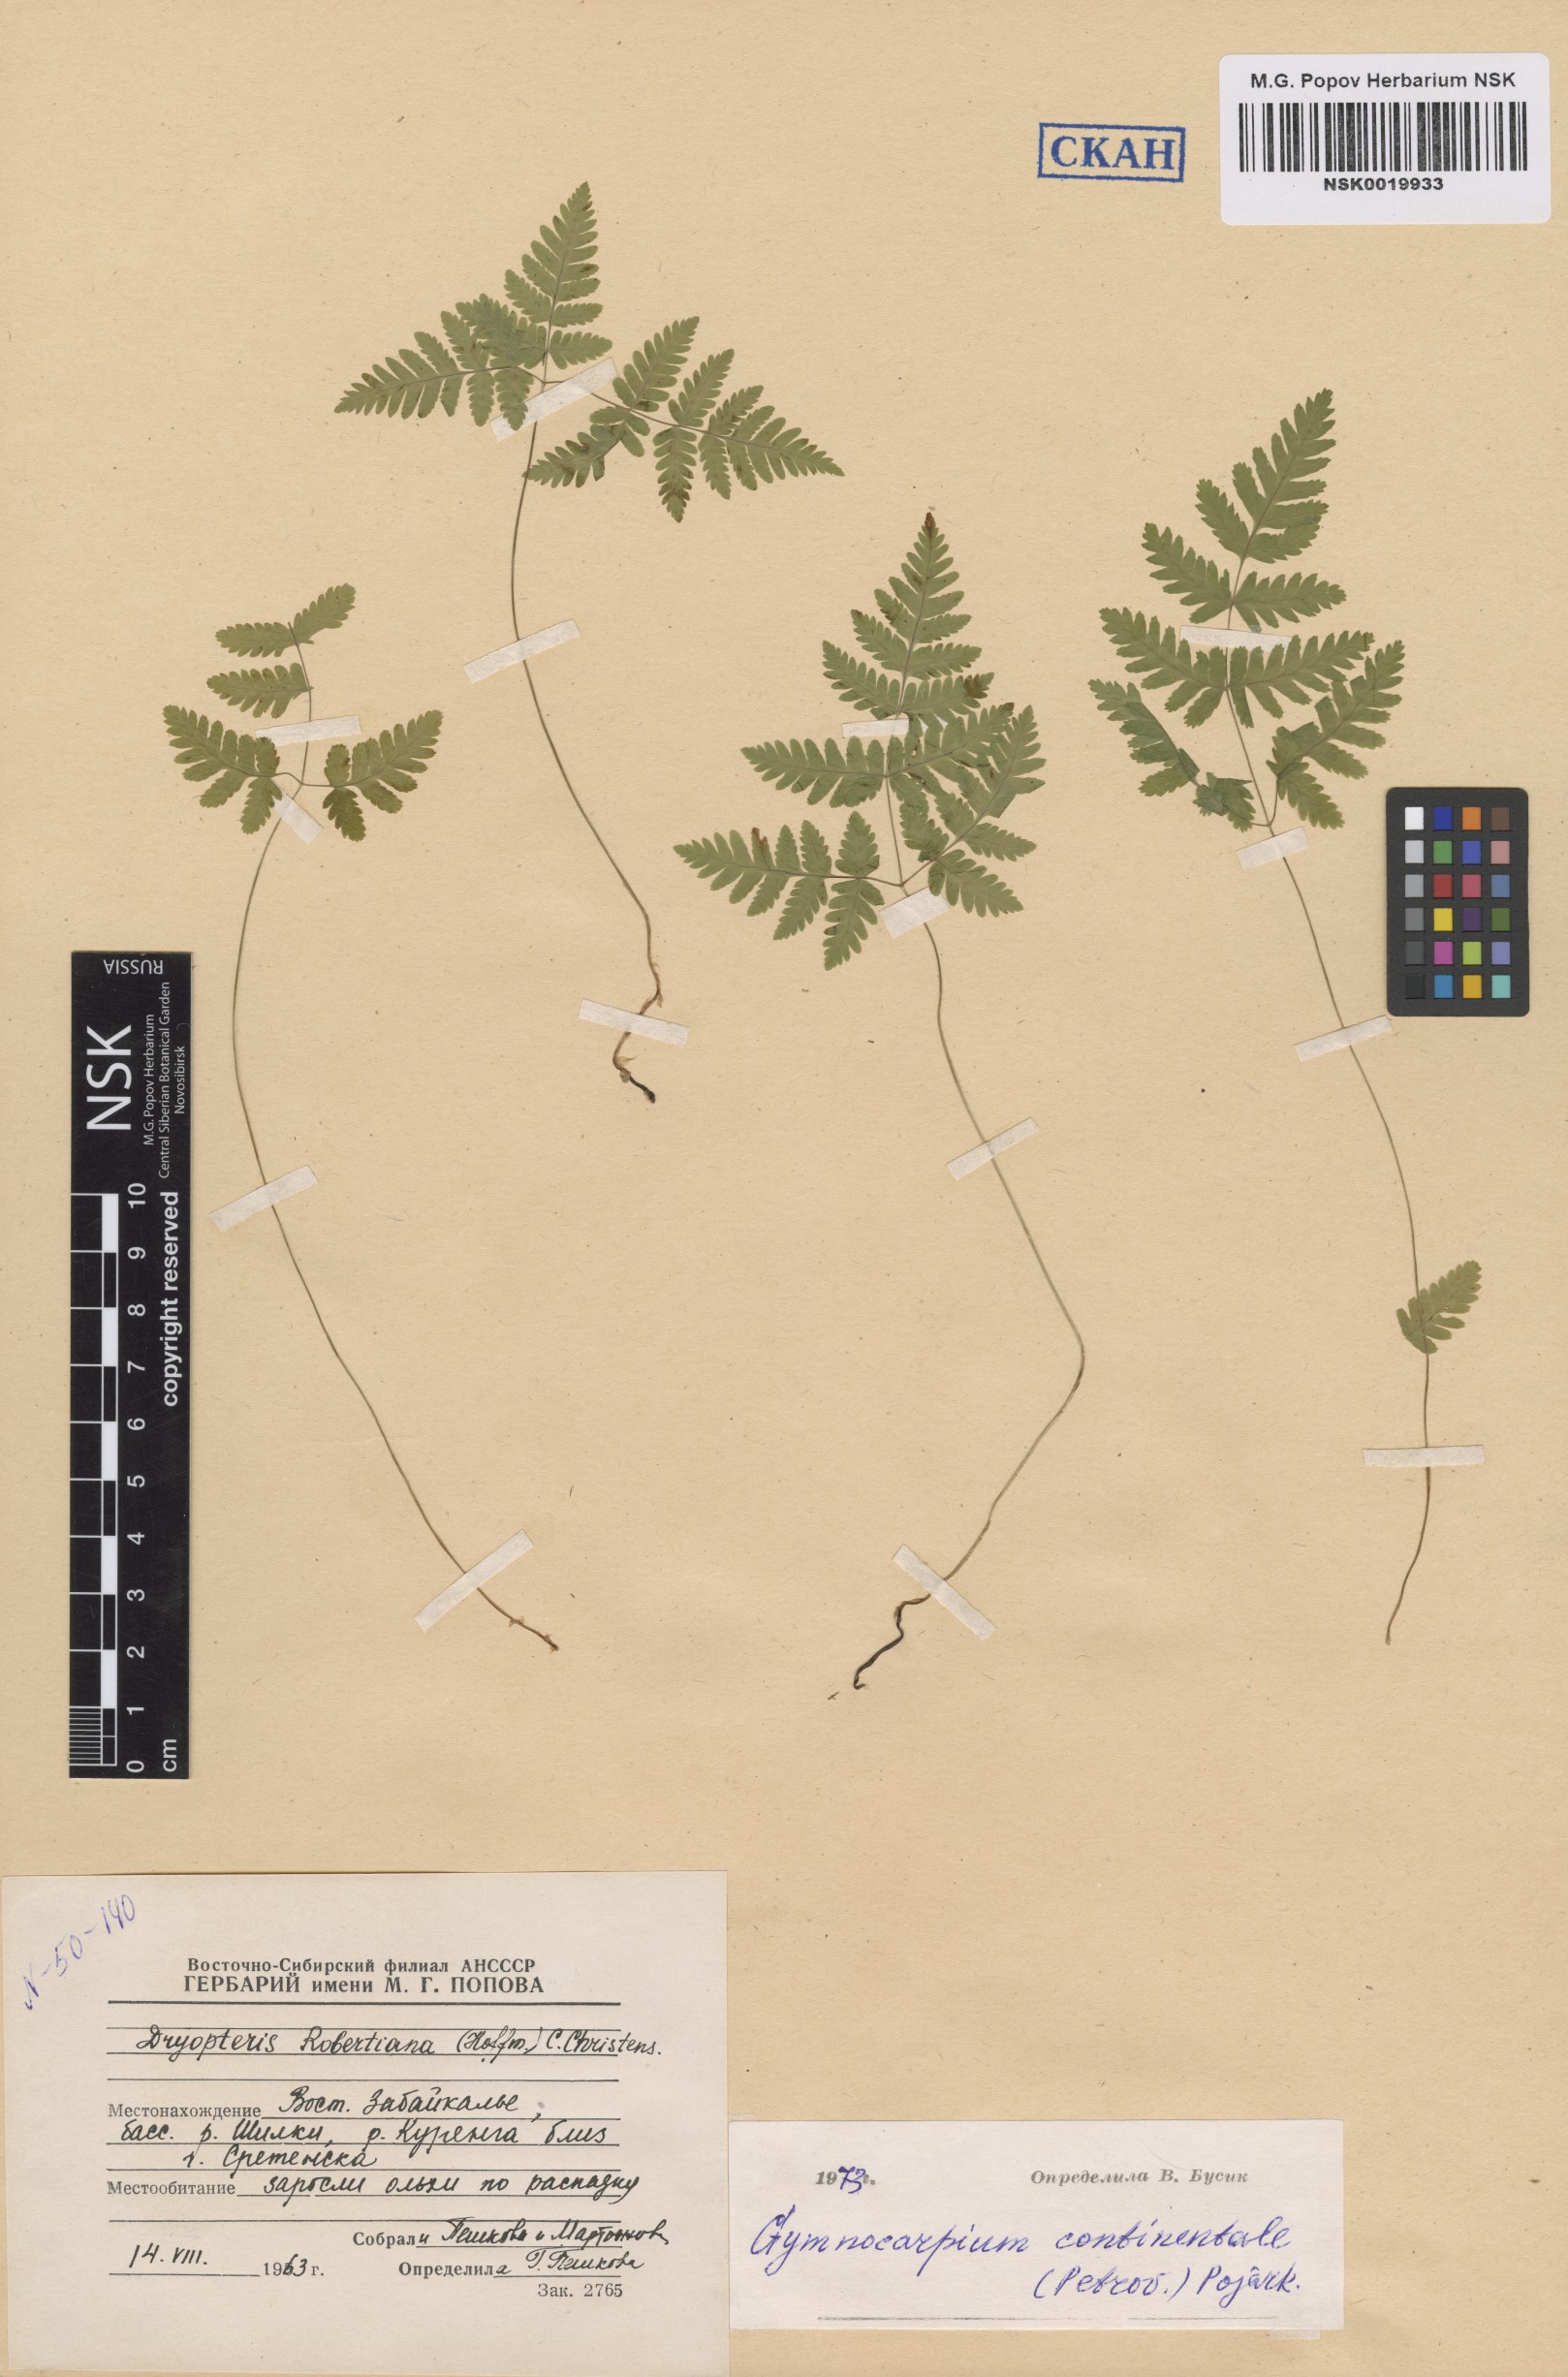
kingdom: Plantae
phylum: Tracheophyta
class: Polypodiopsida
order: Polypodiales
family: Cystopteridaceae
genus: Gymnocarpium
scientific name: Gymnocarpium continentale
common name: Asian oak fern
